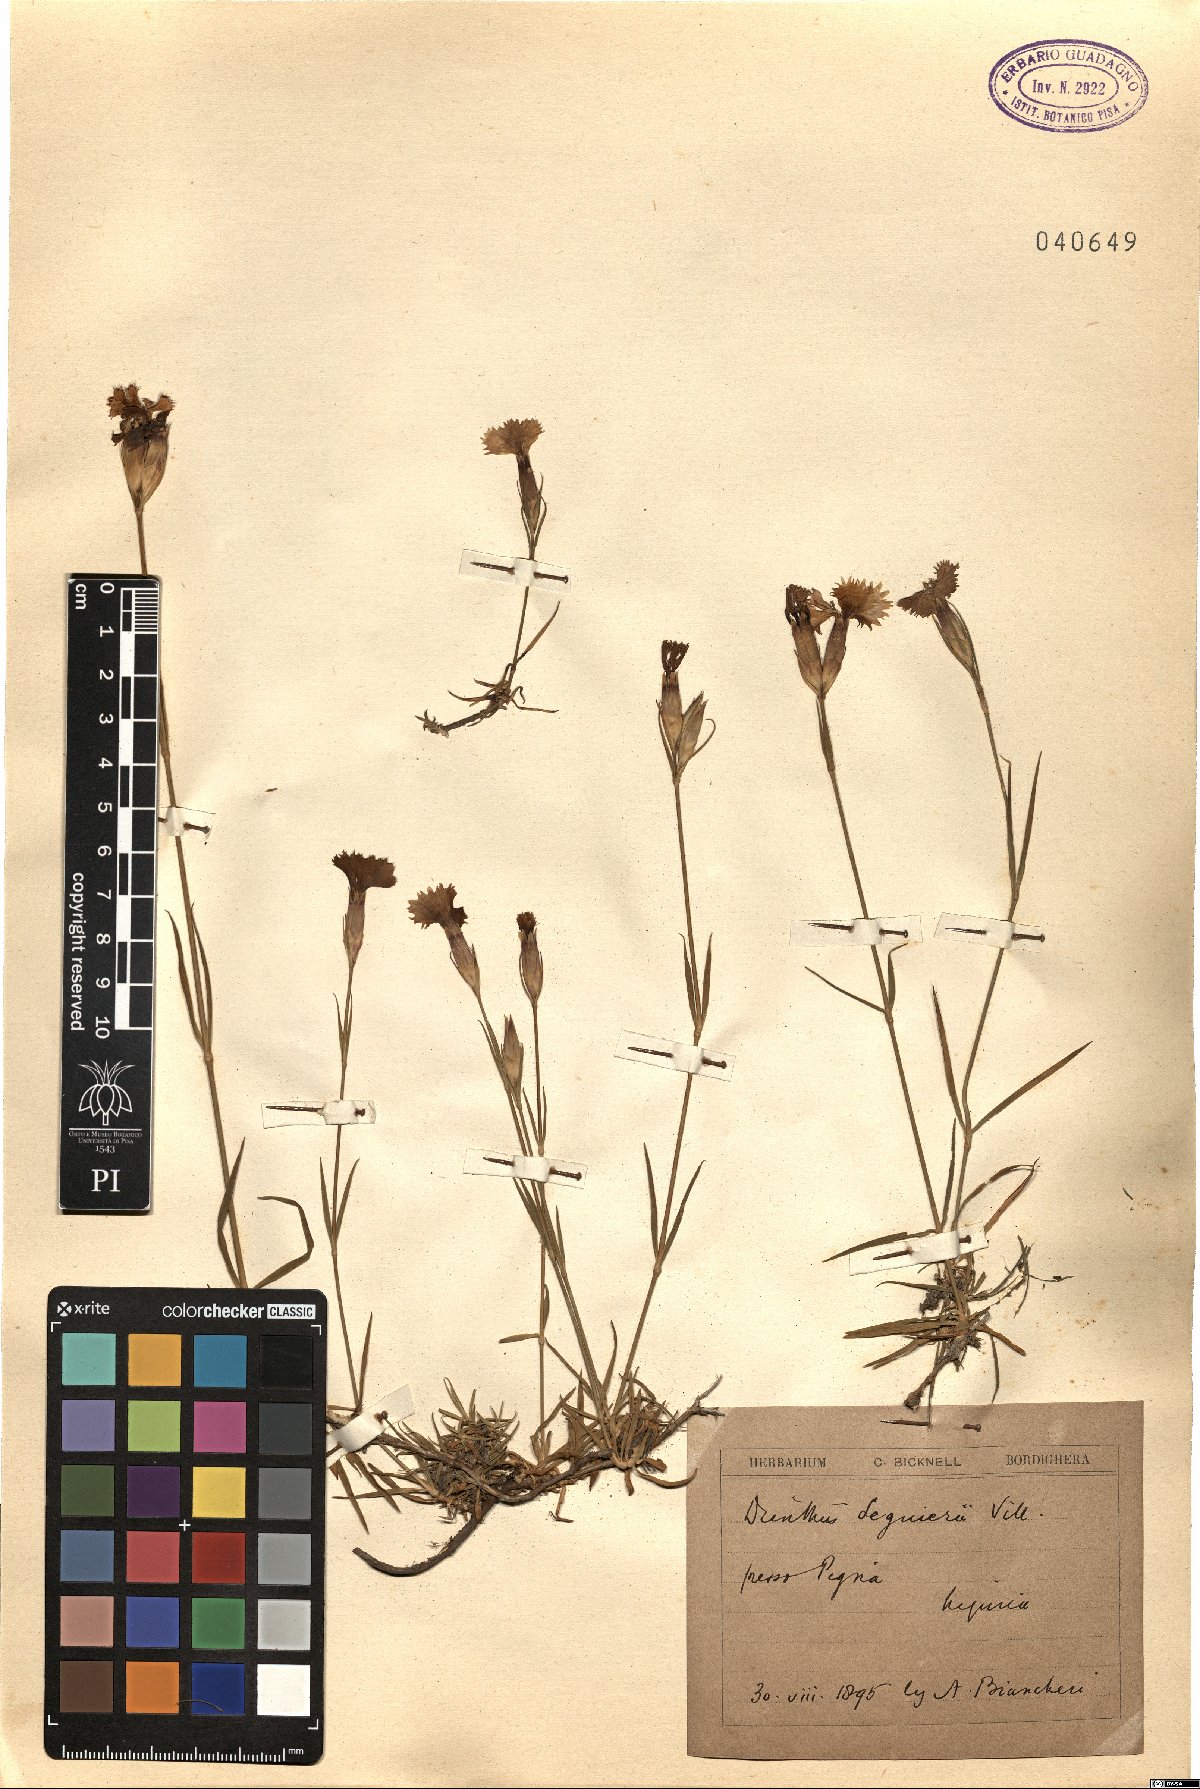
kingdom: Plantae
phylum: Tracheophyta
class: Magnoliopsida
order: Caryophyllales
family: Caryophyllaceae
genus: Dianthus
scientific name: Dianthus seguieri
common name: Ragged pink
